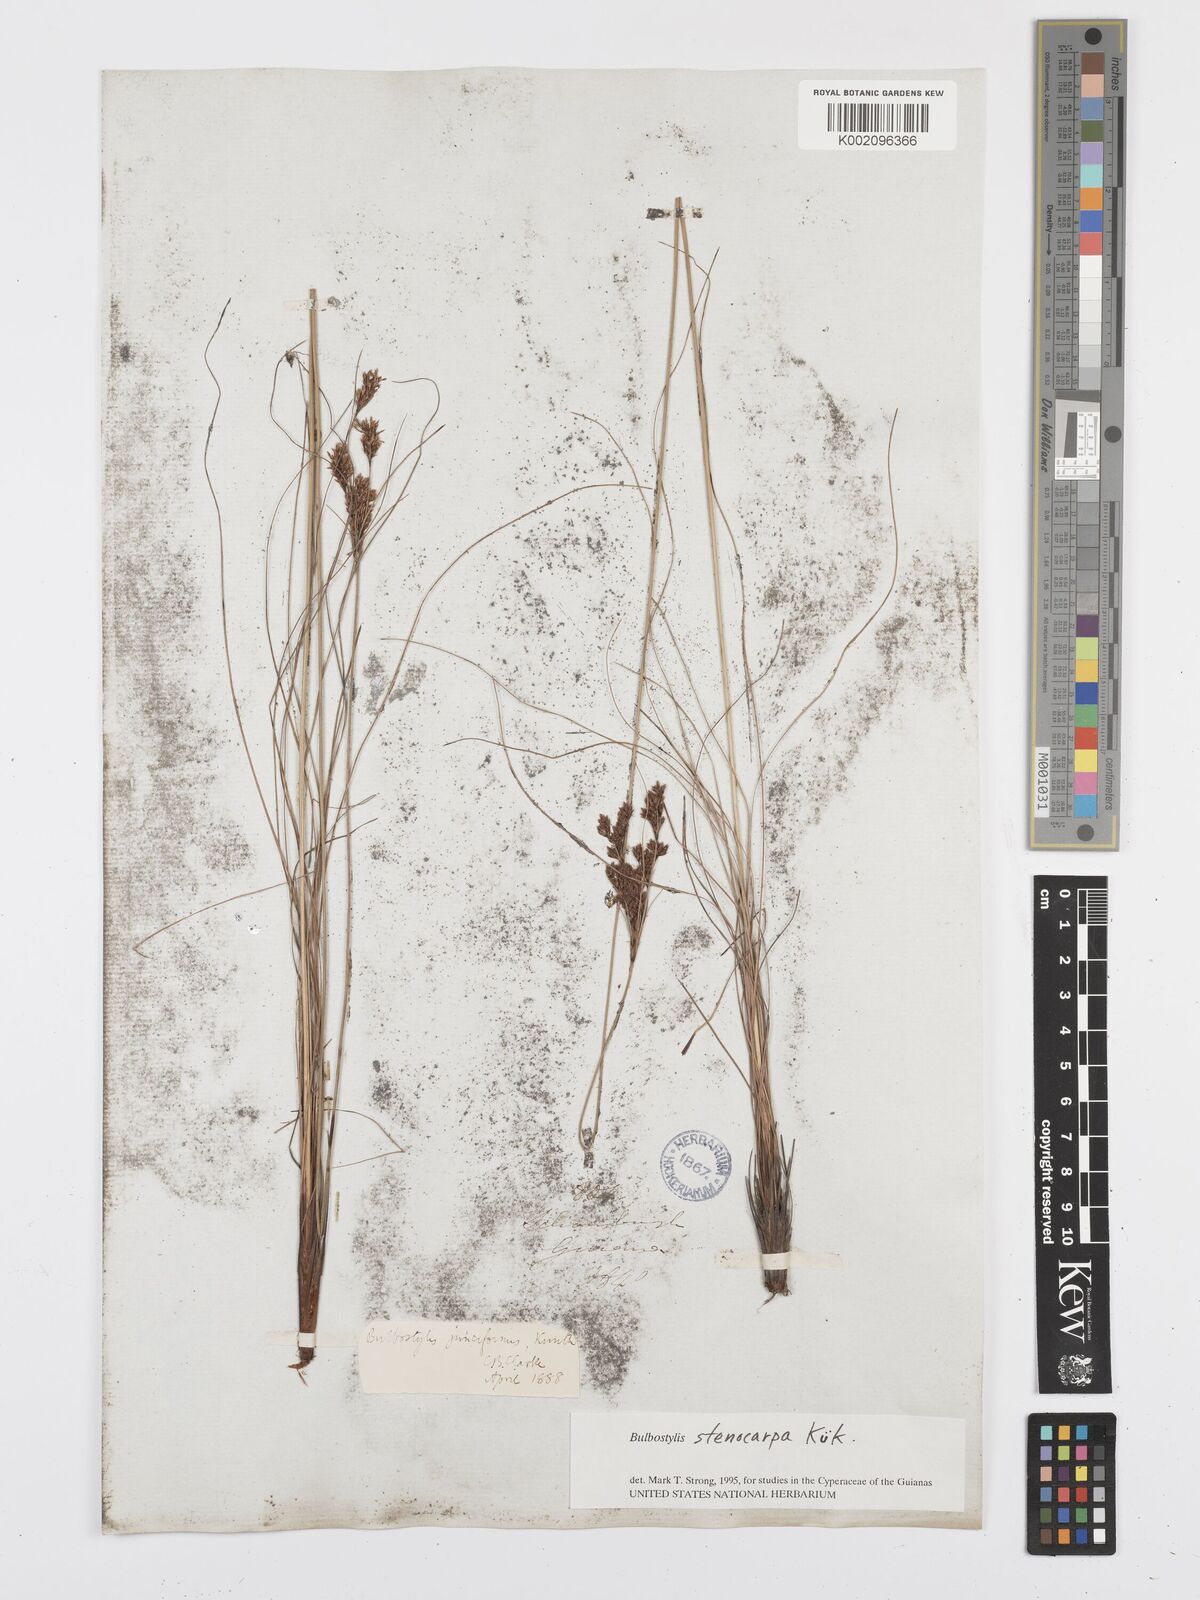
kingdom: Plantae
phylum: Tracheophyta
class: Liliopsida
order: Poales
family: Cyperaceae
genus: Bulbostylis
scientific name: Bulbostylis stenocarpa
